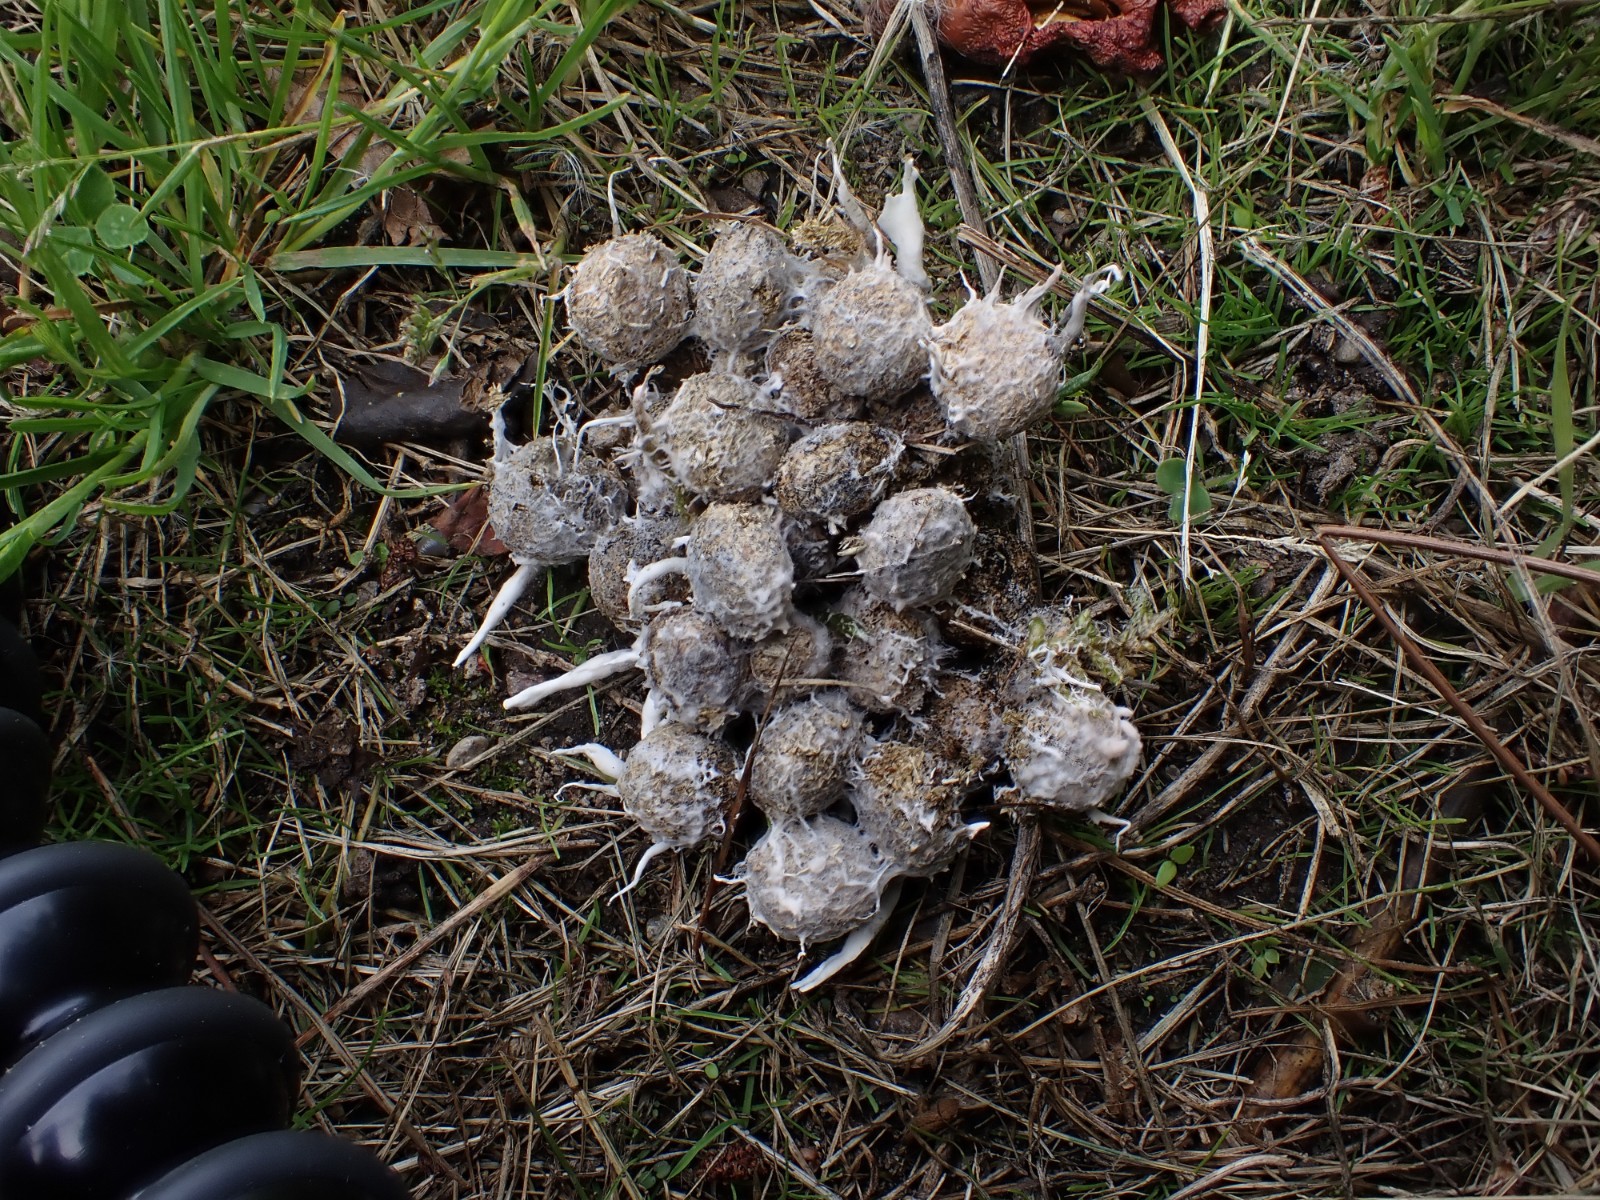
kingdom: Fungi
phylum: Ascomycota
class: Sordariomycetes
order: Xylariales
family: Xylariaceae
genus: Podosordaria
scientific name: Podosordaria tulasnei
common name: gødnings-stødsvamp
